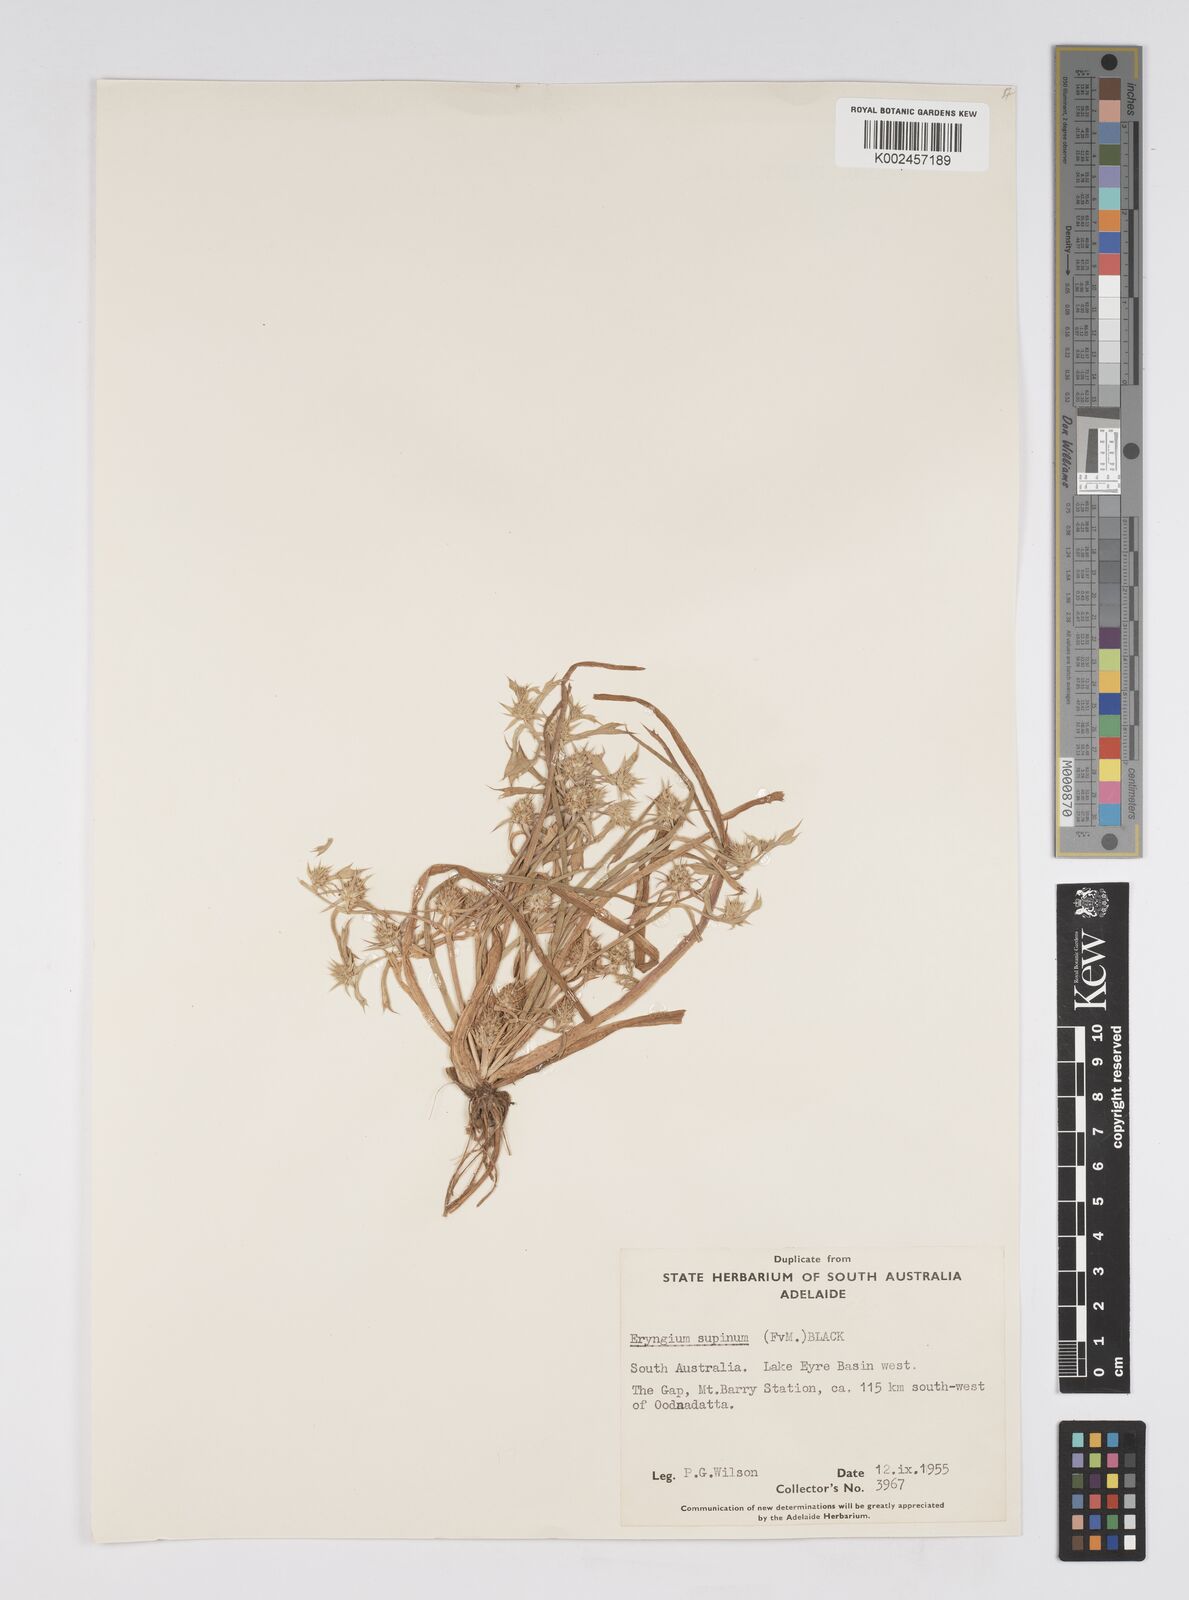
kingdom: Plantae
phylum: Tracheophyta
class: Magnoliopsida
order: Apiales
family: Apiaceae
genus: Eryngium
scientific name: Eryngium supinum
